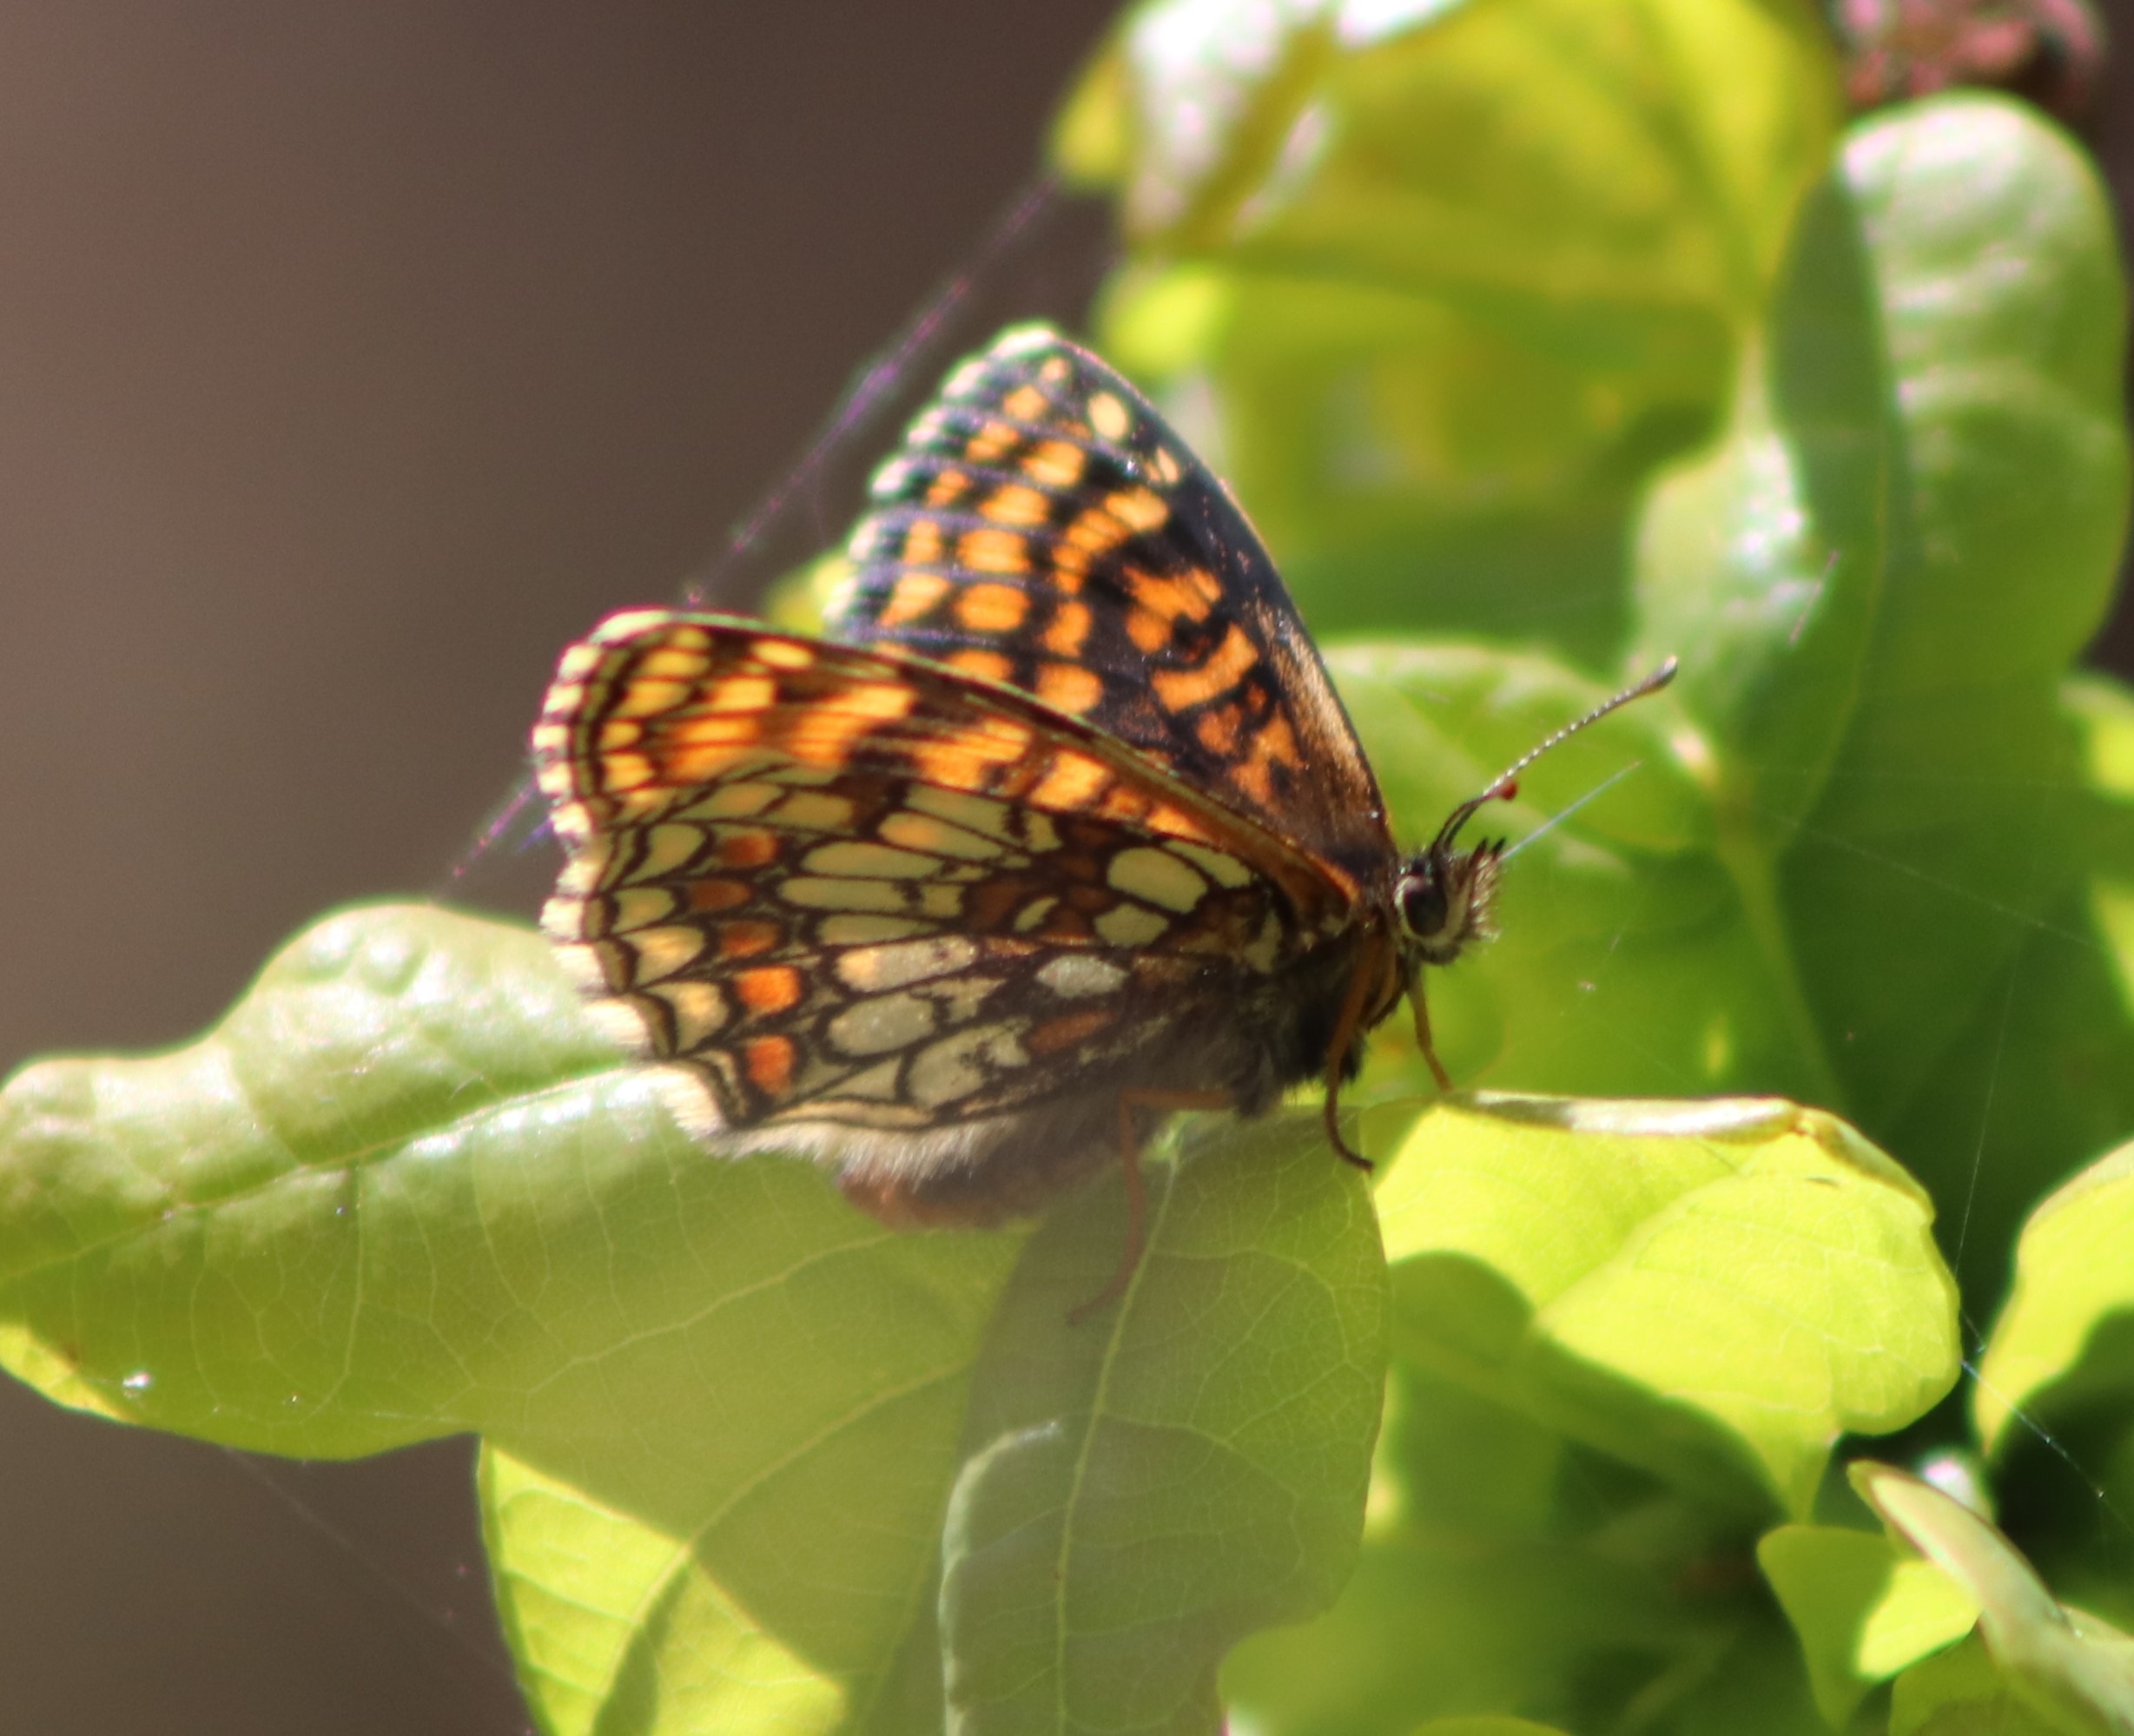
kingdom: Animalia
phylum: Arthropoda
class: Insecta
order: Lepidoptera
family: Nymphalidae
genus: Mellicta
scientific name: Mellicta athalia
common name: Brun pletvinge
